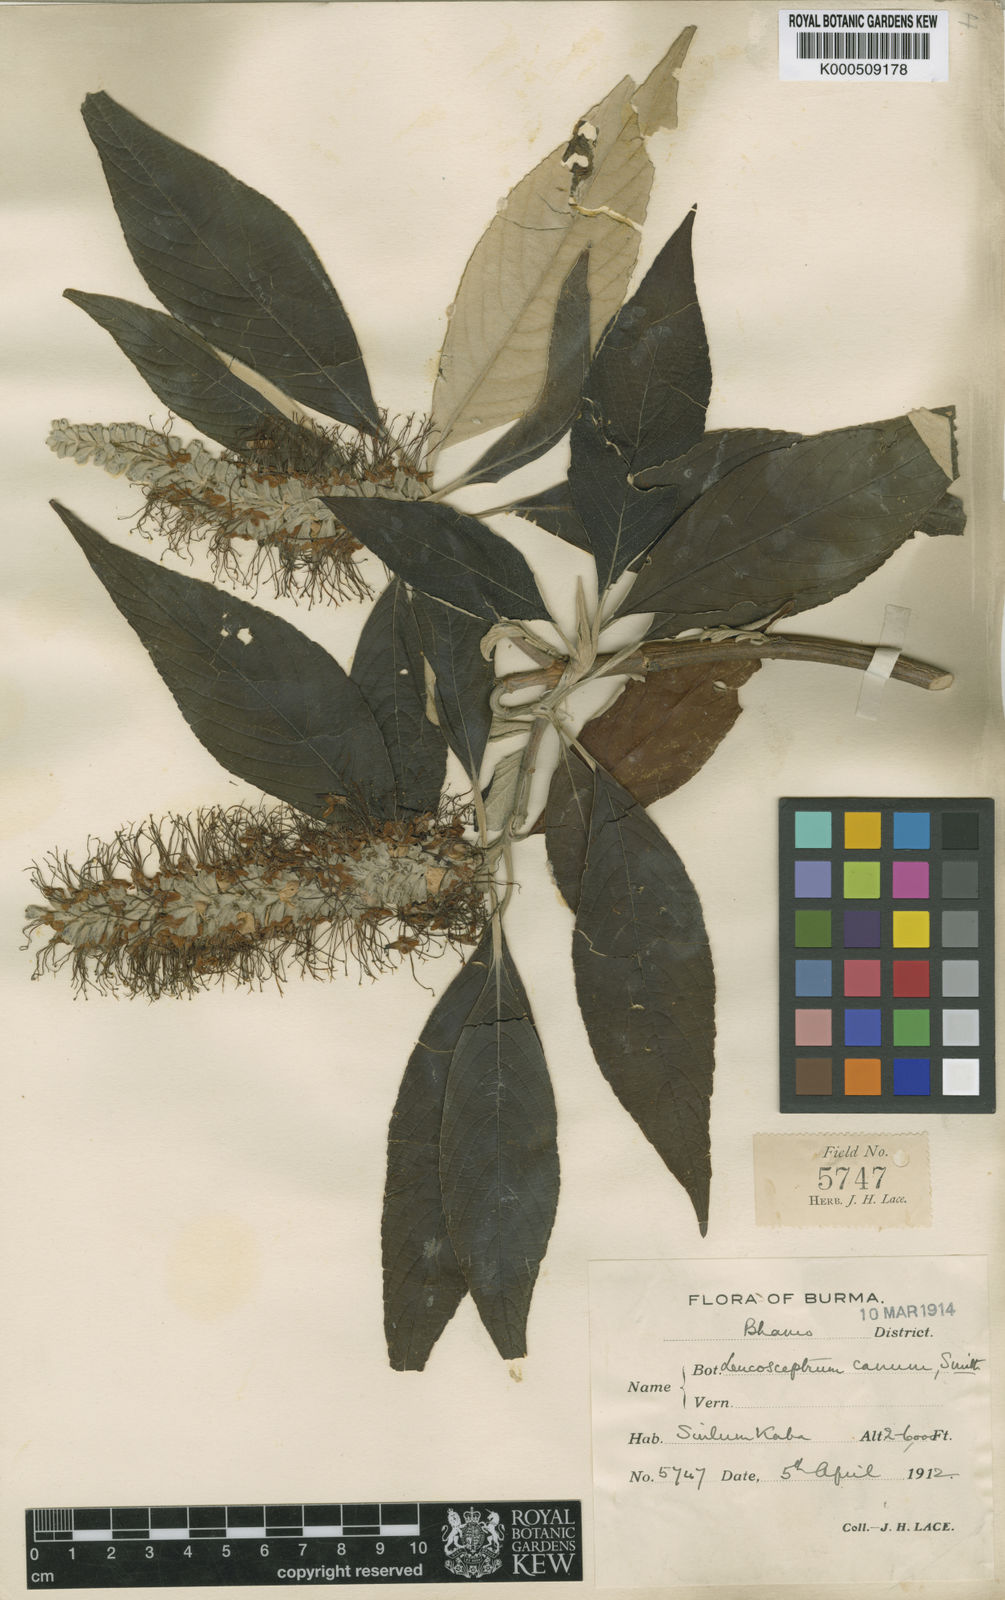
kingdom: Plantae
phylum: Tracheophyta
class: Magnoliopsida
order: Lamiales
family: Lamiaceae
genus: Leucosceptrum
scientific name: Leucosceptrum canum
